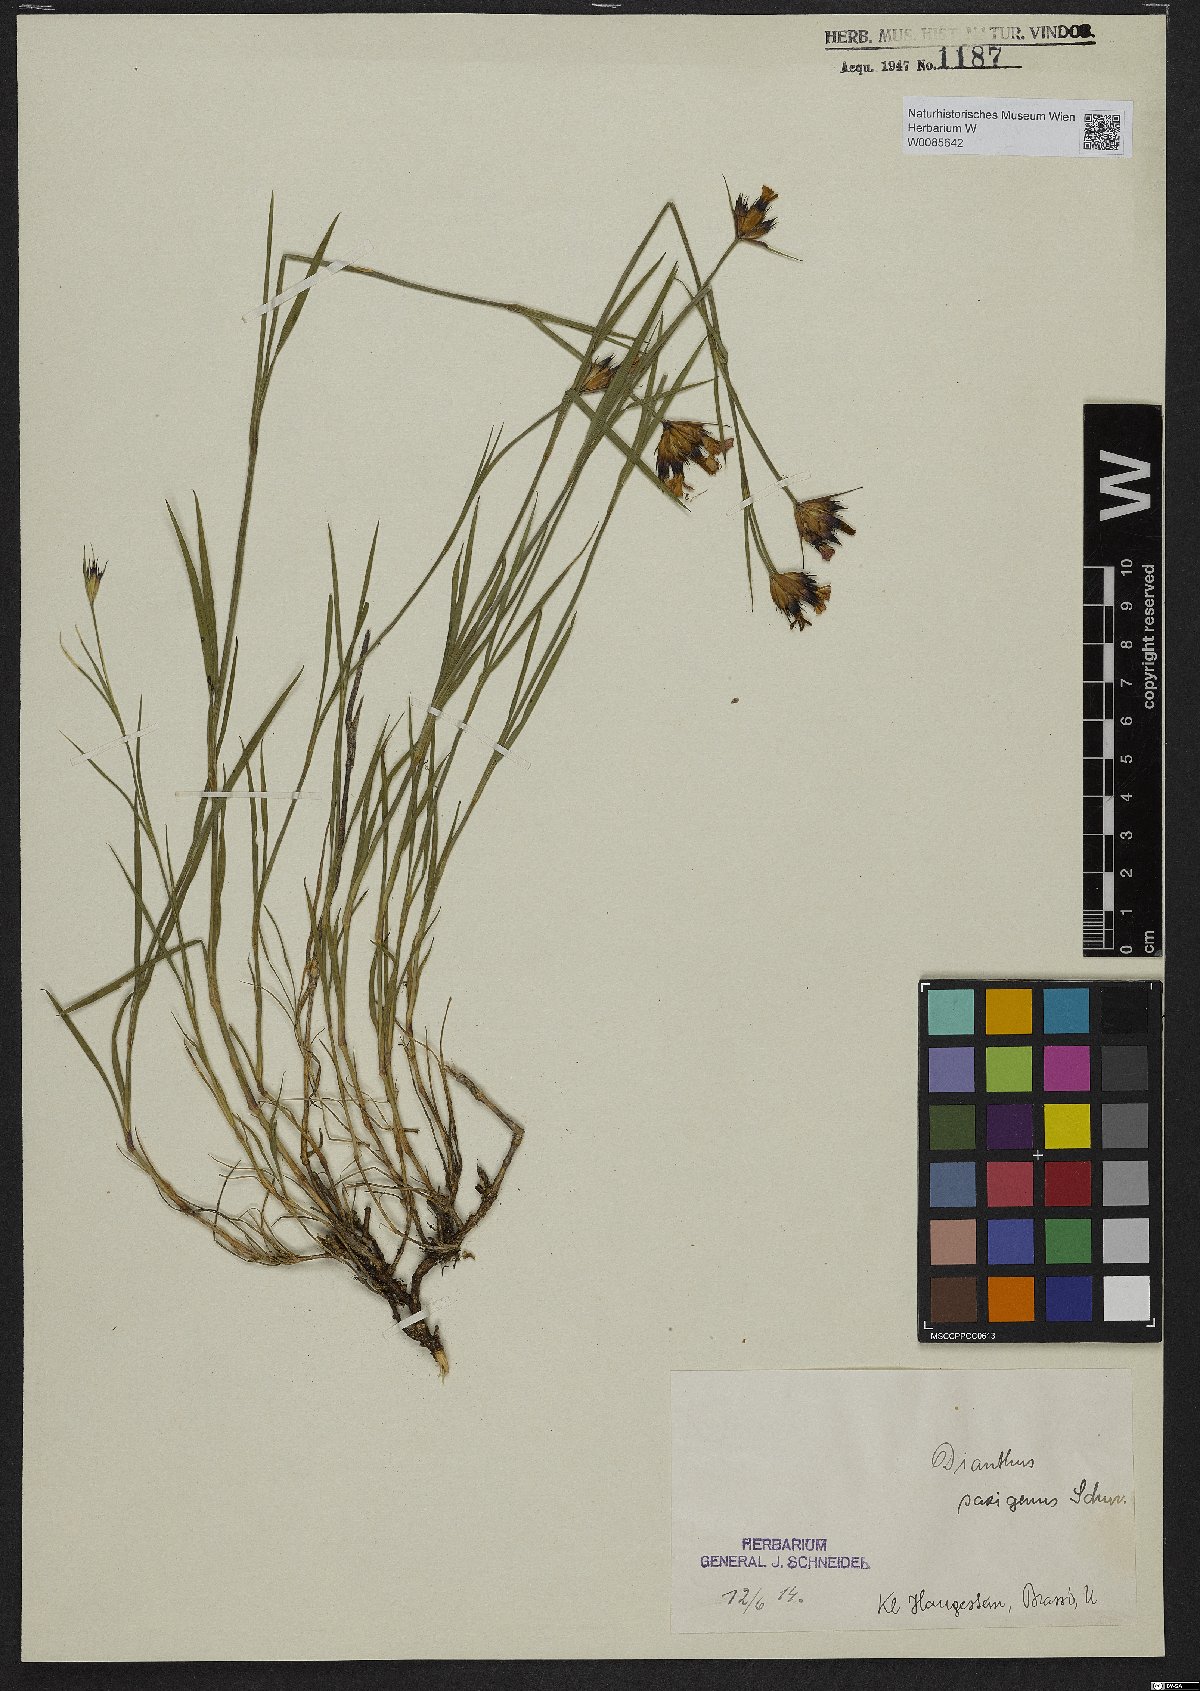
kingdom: Plantae
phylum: Tracheophyta
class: Magnoliopsida
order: Caryophyllales
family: Caryophyllaceae
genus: Dianthus
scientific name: Dianthus
